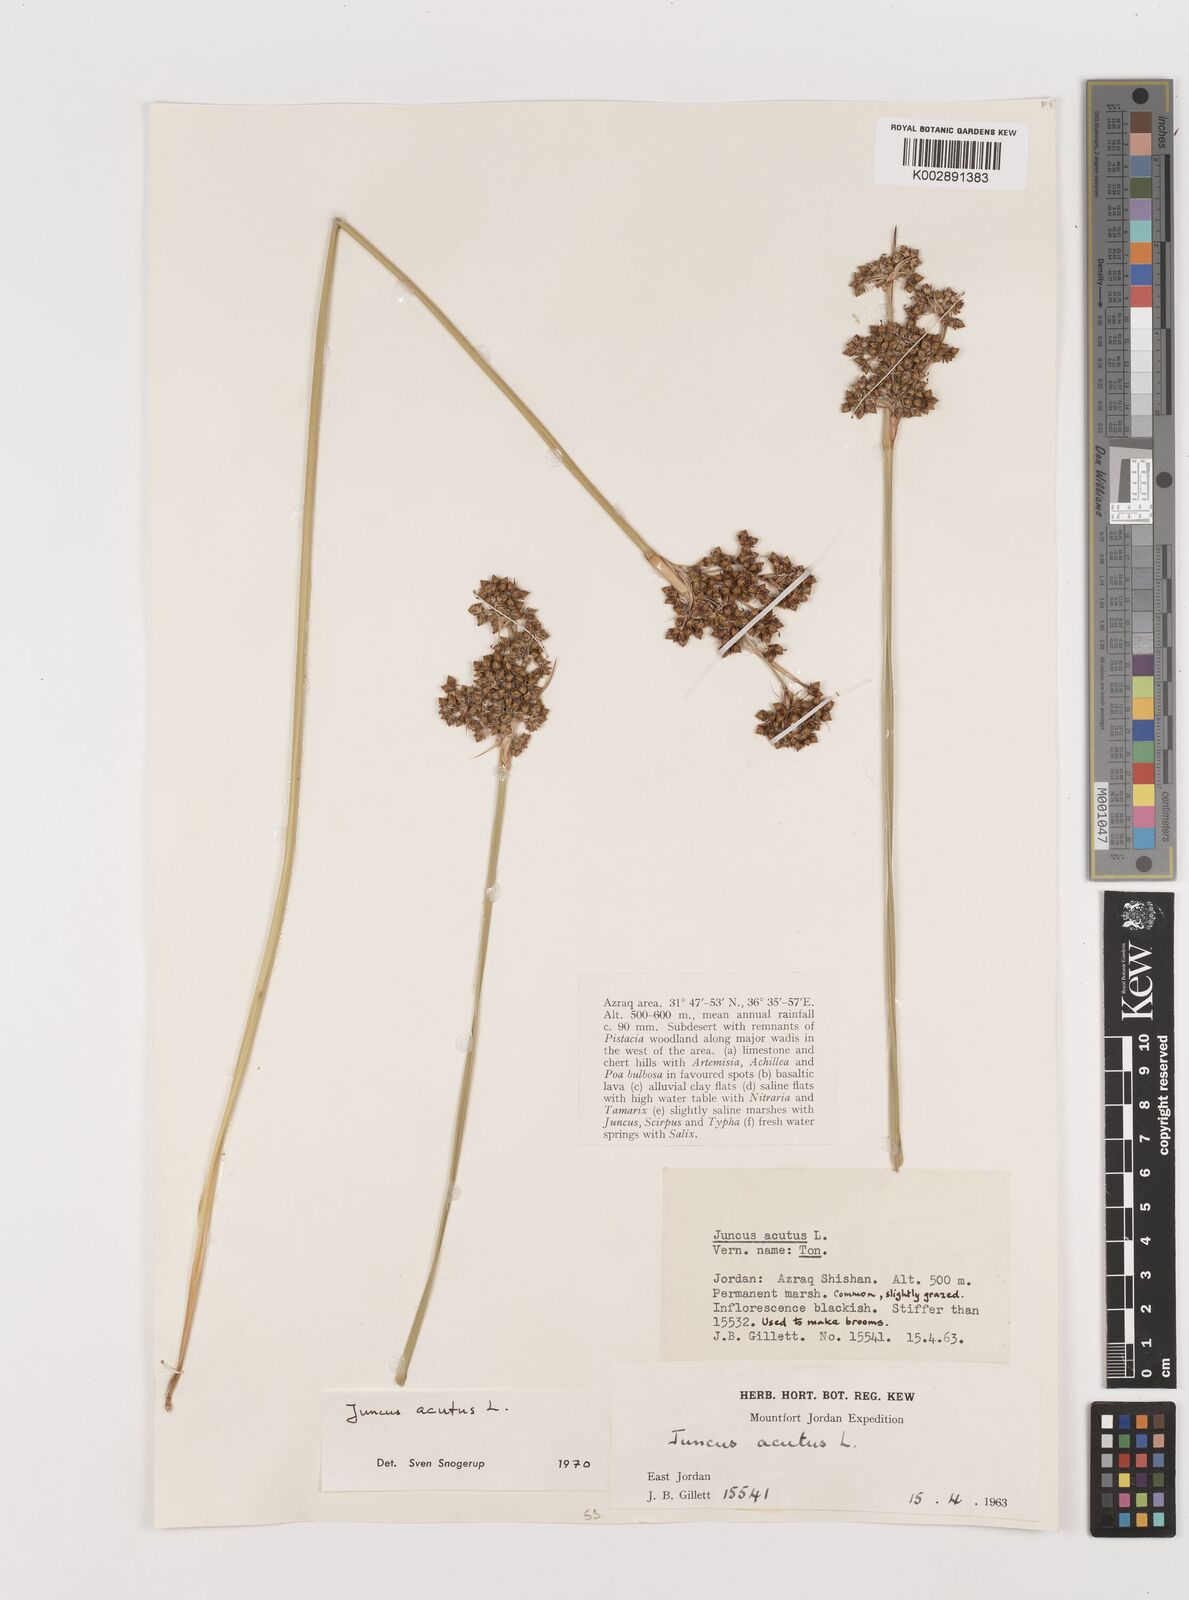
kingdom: Plantae
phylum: Tracheophyta
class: Liliopsida
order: Poales
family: Juncaceae
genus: Juncus
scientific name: Juncus acutus
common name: Sharp rush
